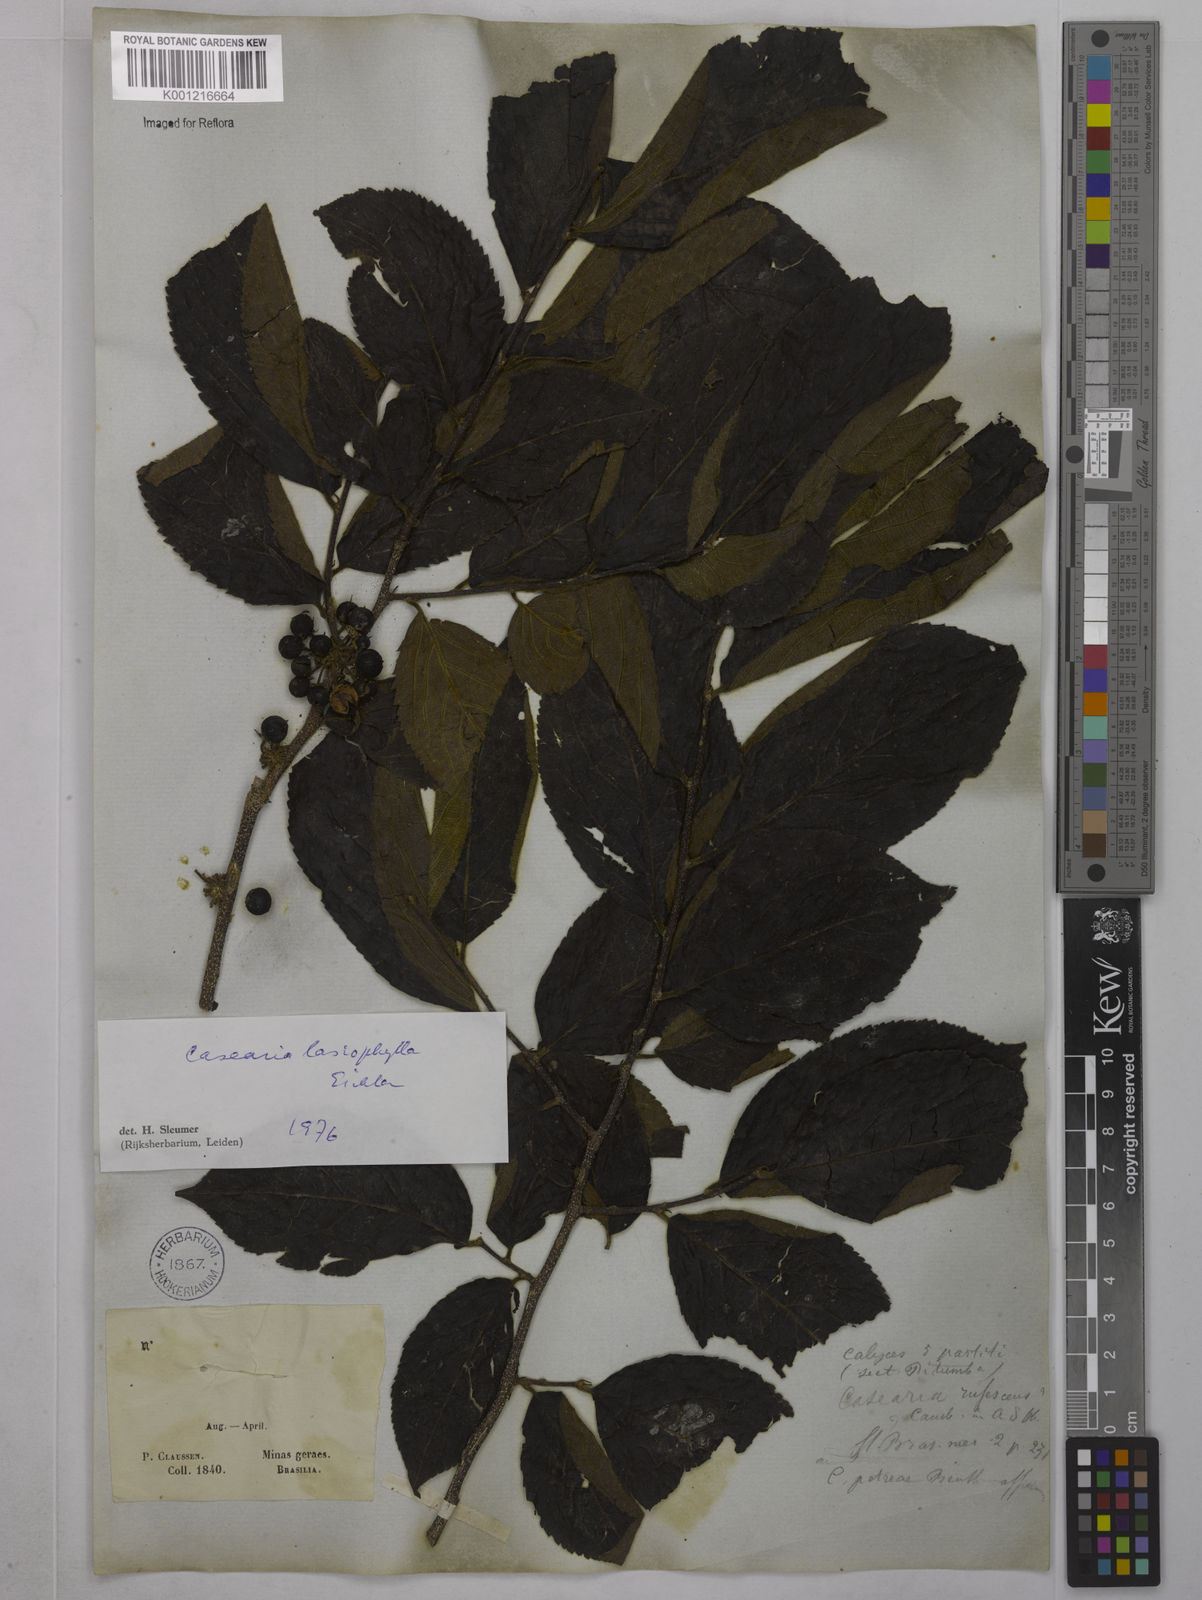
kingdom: Plantae
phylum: Tracheophyta
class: Magnoliopsida
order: Malpighiales
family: Salicaceae
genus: Casearia
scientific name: Casearia lasiophylla
